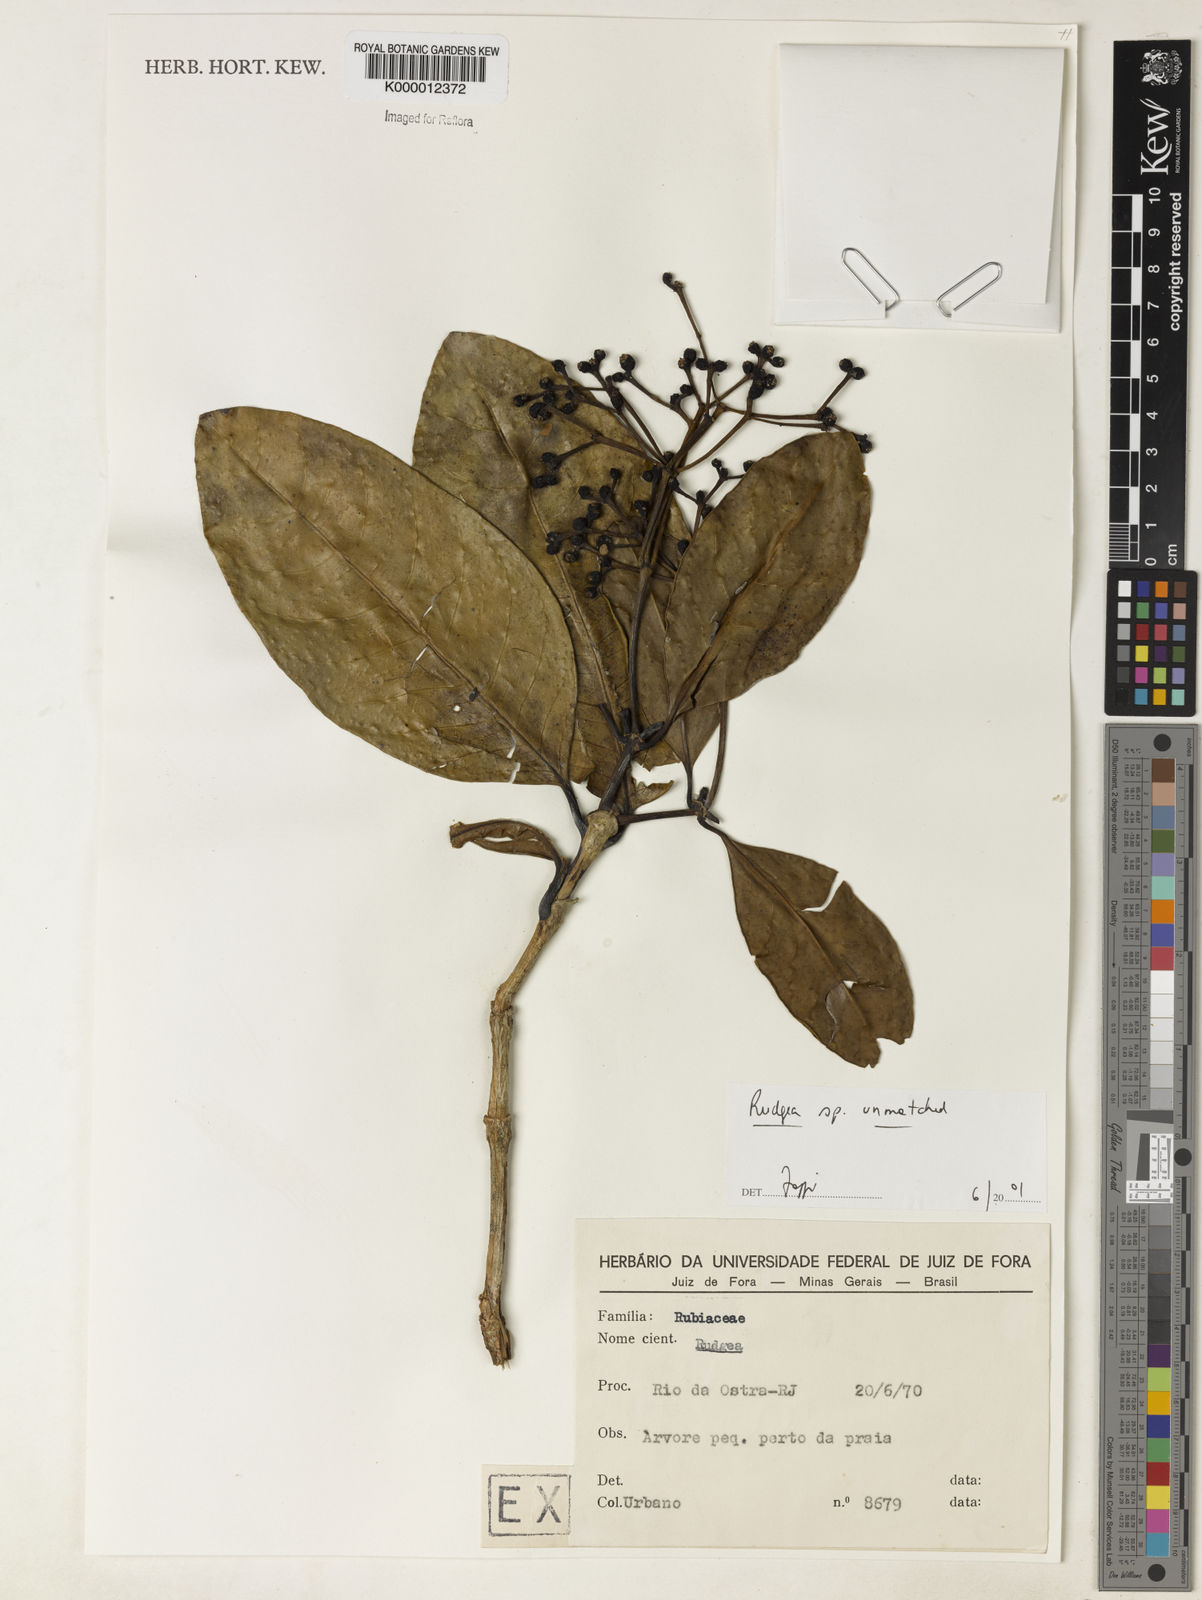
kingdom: Plantae
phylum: Tracheophyta
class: Magnoliopsida
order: Gentianales
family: Rubiaceae
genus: Rudgea
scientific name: Rudgea
